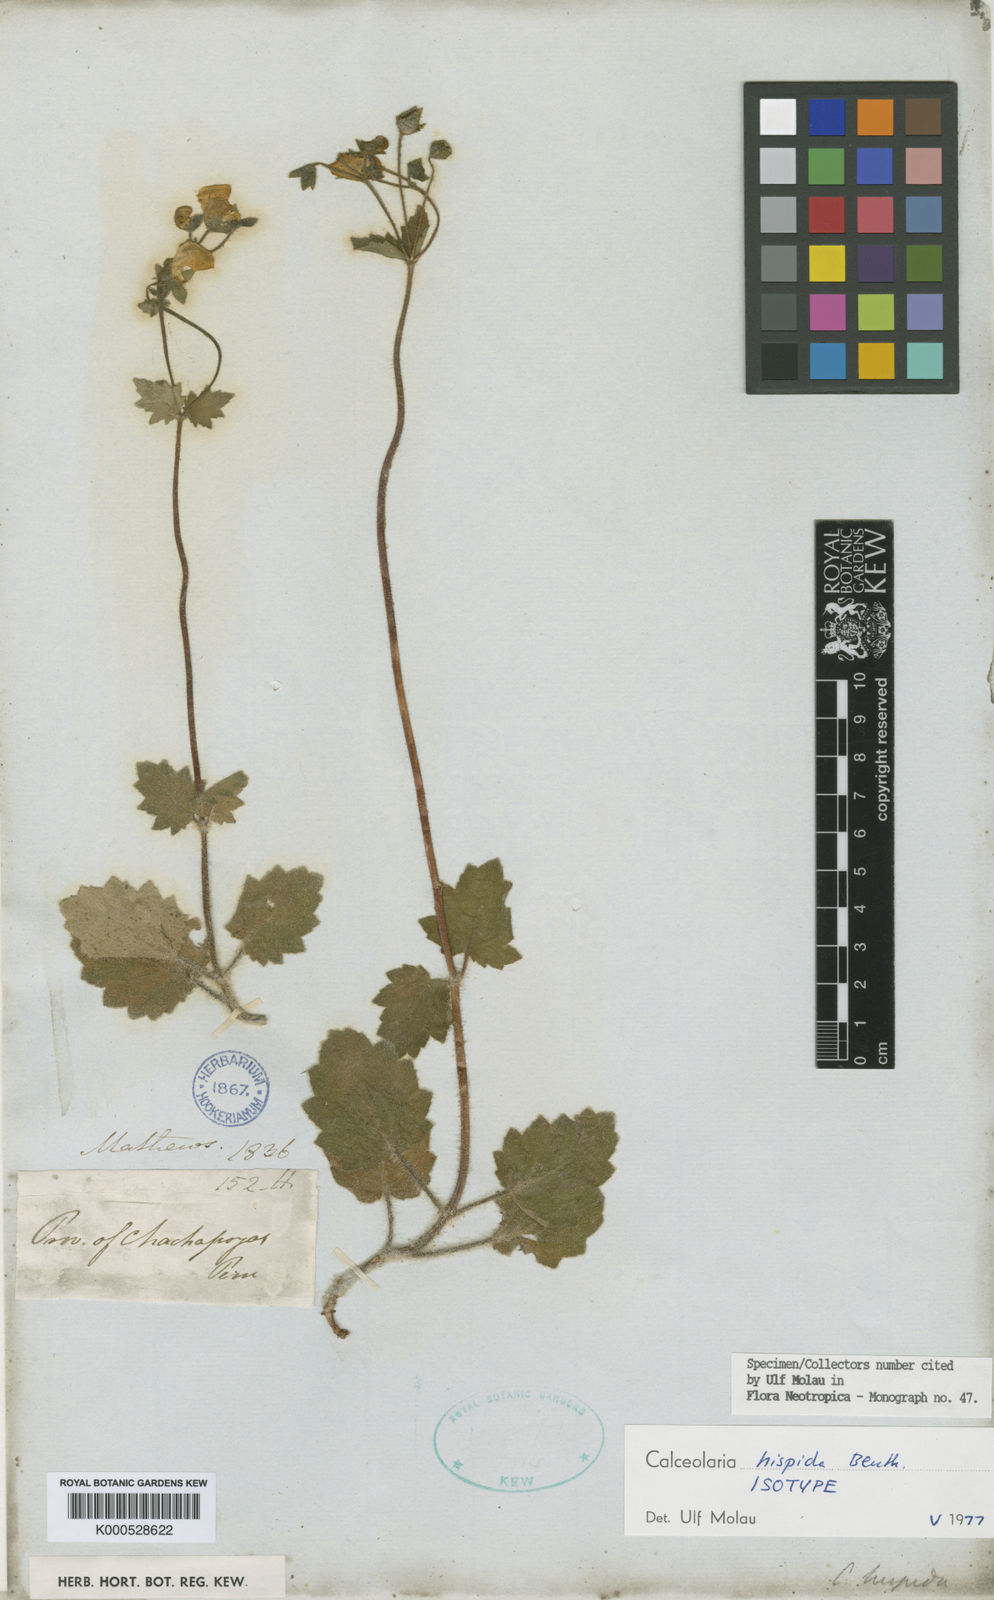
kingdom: Plantae
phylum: Tracheophyta
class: Magnoliopsida
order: Lamiales
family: Calceolariaceae
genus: Calceolaria
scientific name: Calceolaria hispida
